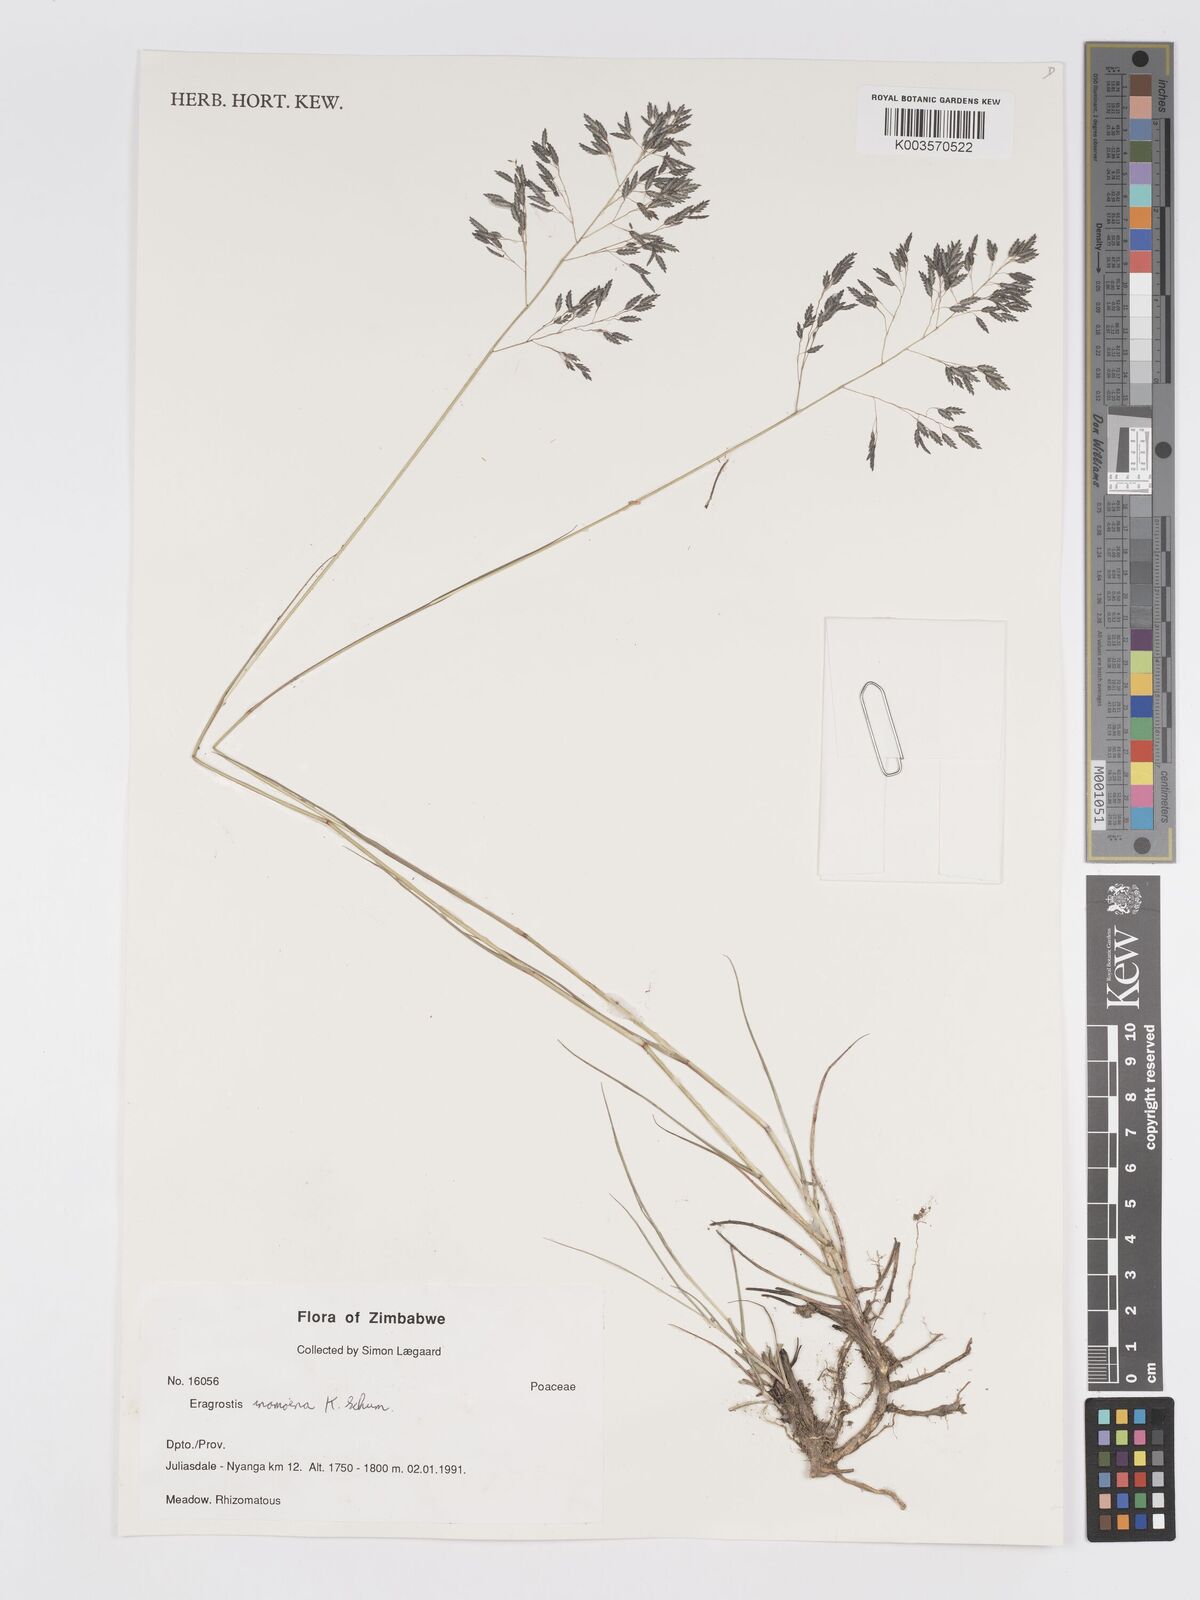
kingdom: Plantae
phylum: Tracheophyta
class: Liliopsida
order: Poales
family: Poaceae
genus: Eragrostis
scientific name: Eragrostis inamoena
